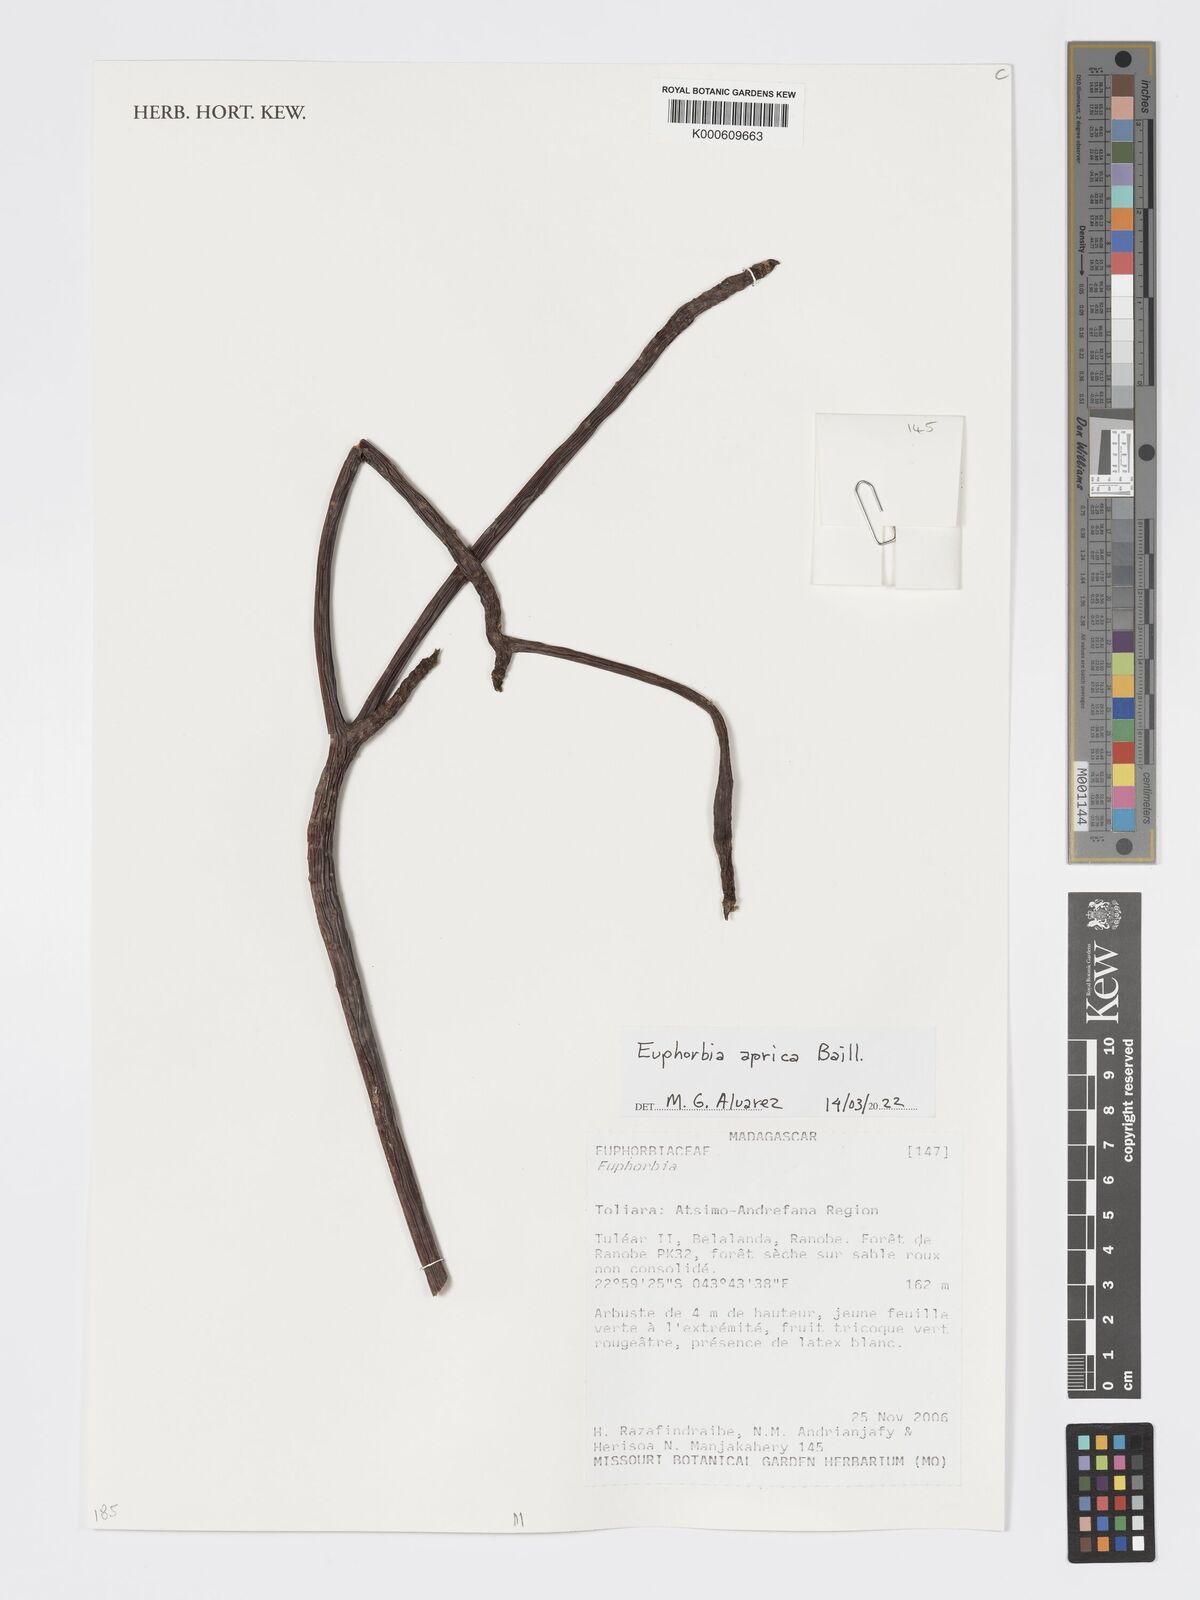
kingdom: Plantae
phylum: Tracheophyta
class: Magnoliopsida
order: Malpighiales
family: Euphorbiaceae
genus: Euphorbia
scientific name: Euphorbia aprica
